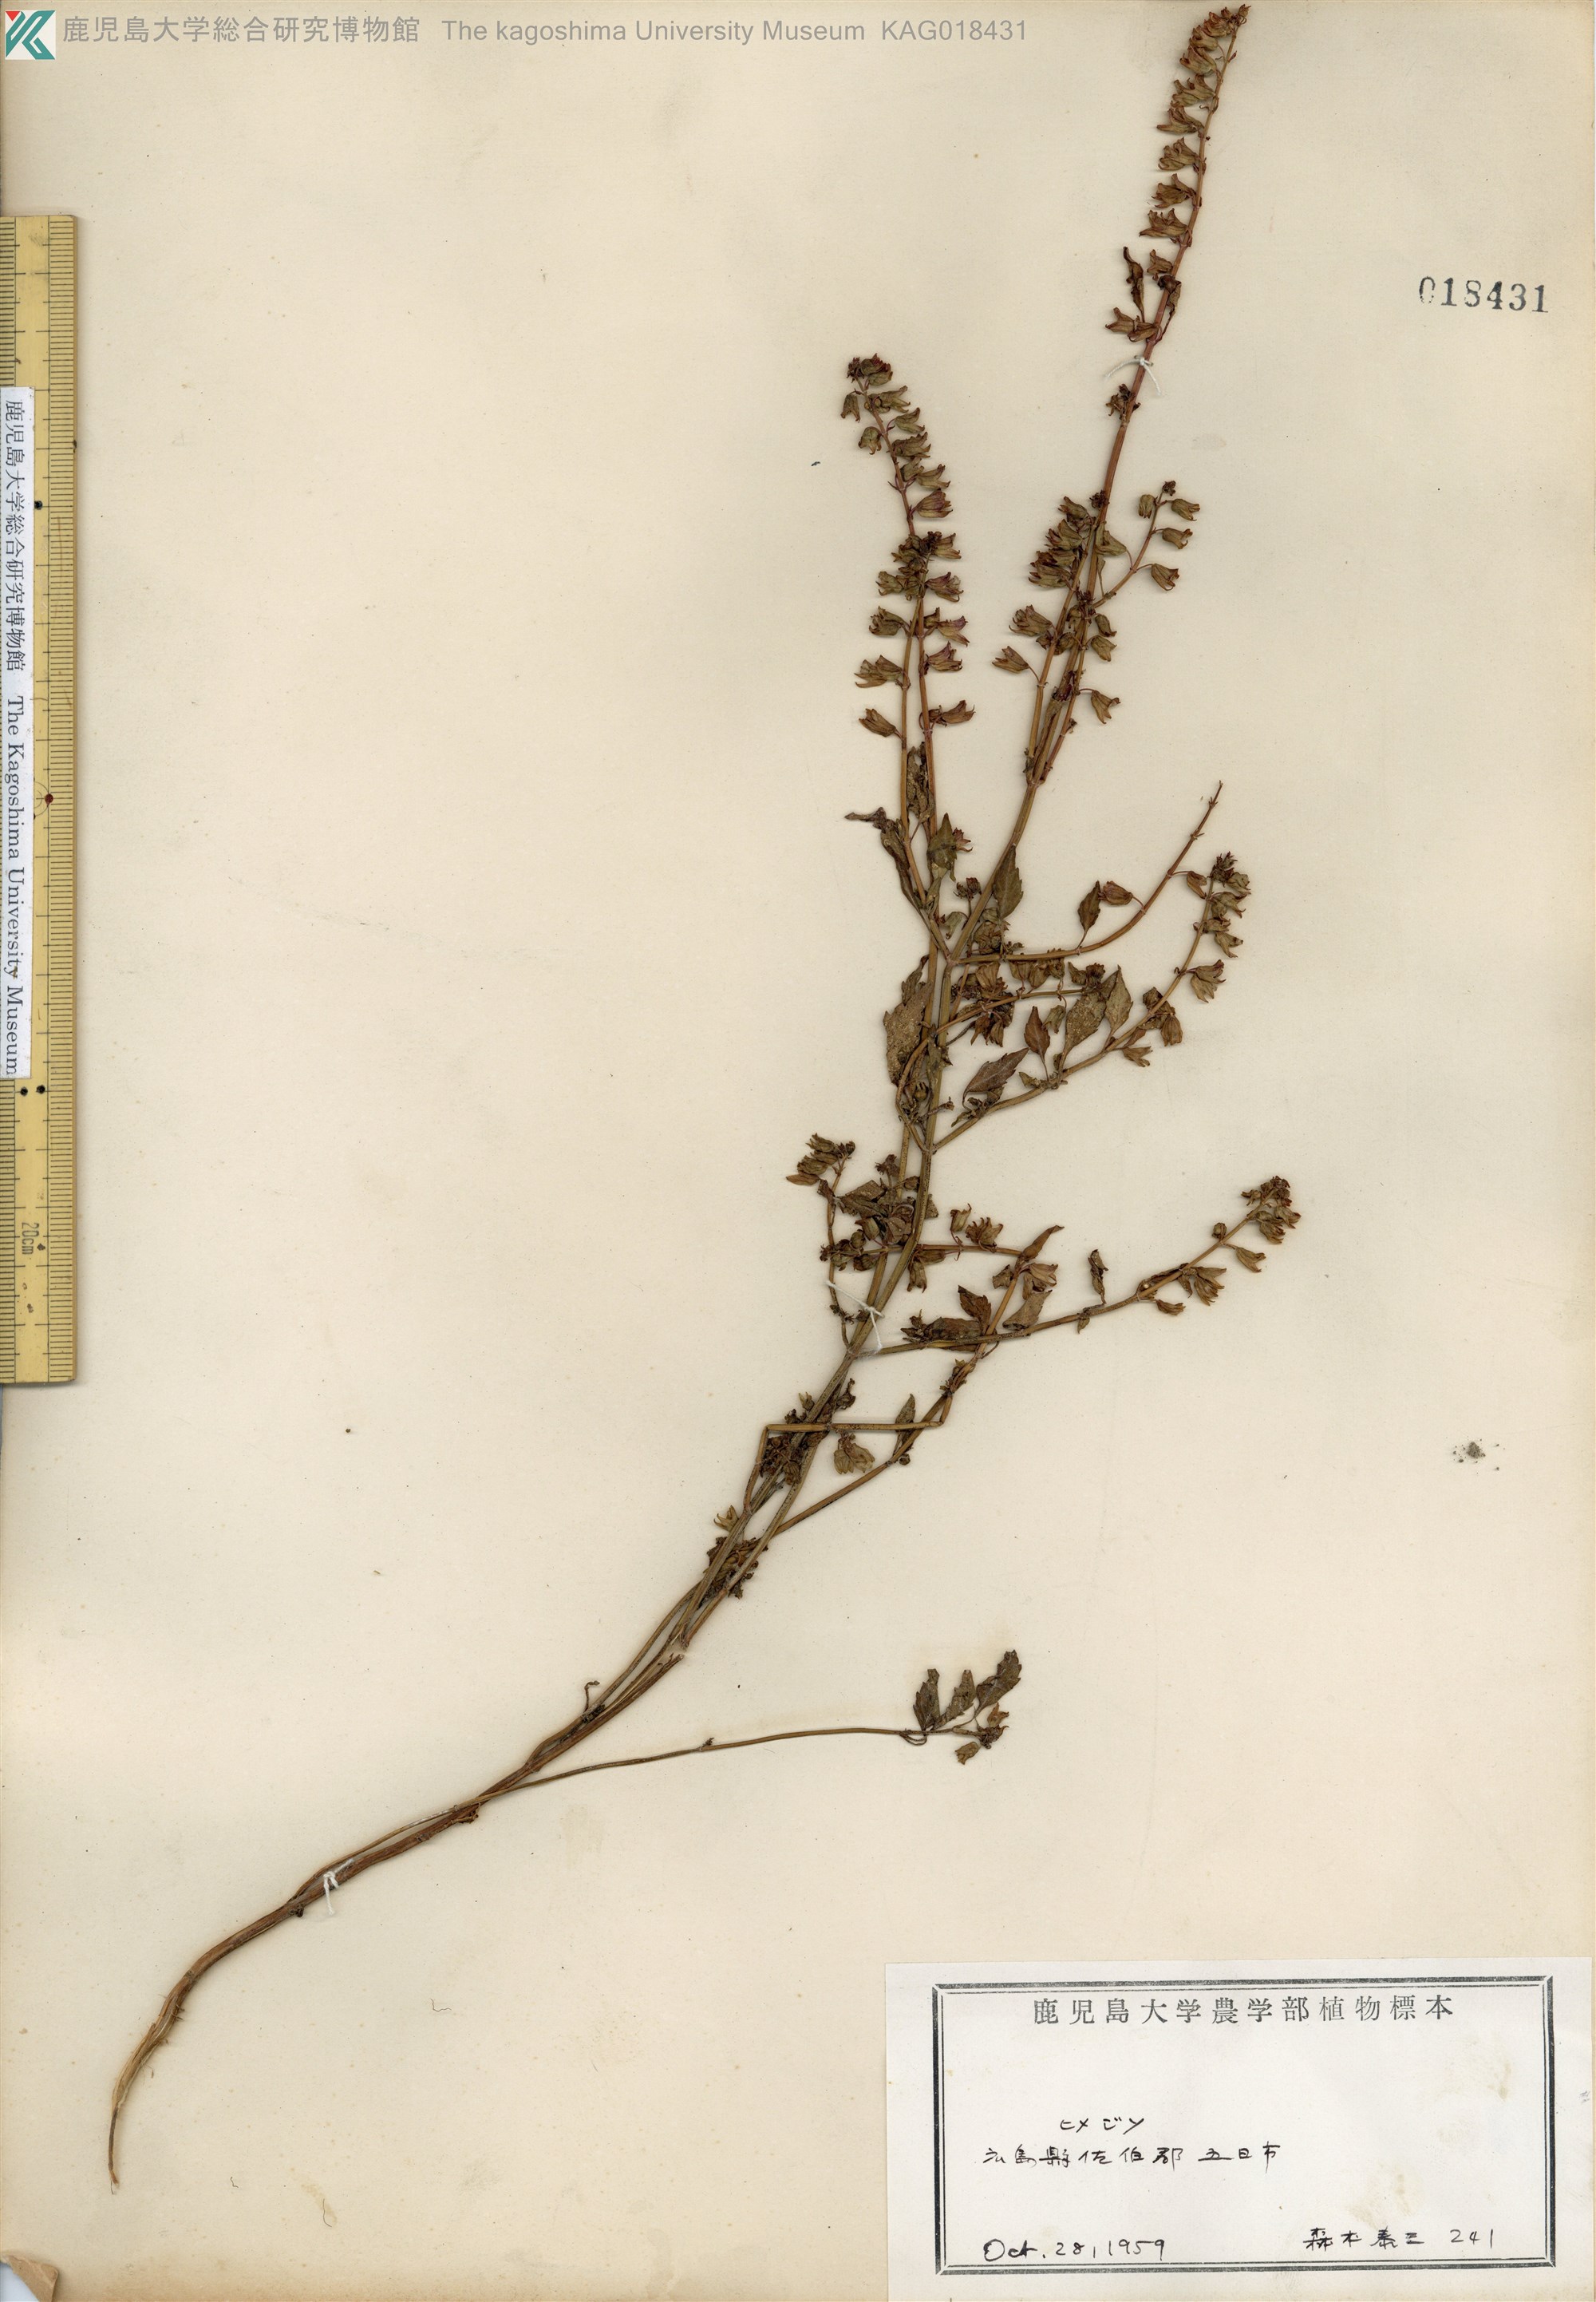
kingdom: Plantae
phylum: Tracheophyta
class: Magnoliopsida
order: Lamiales
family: Lamiaceae
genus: Mosla
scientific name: Mosla dianthera
